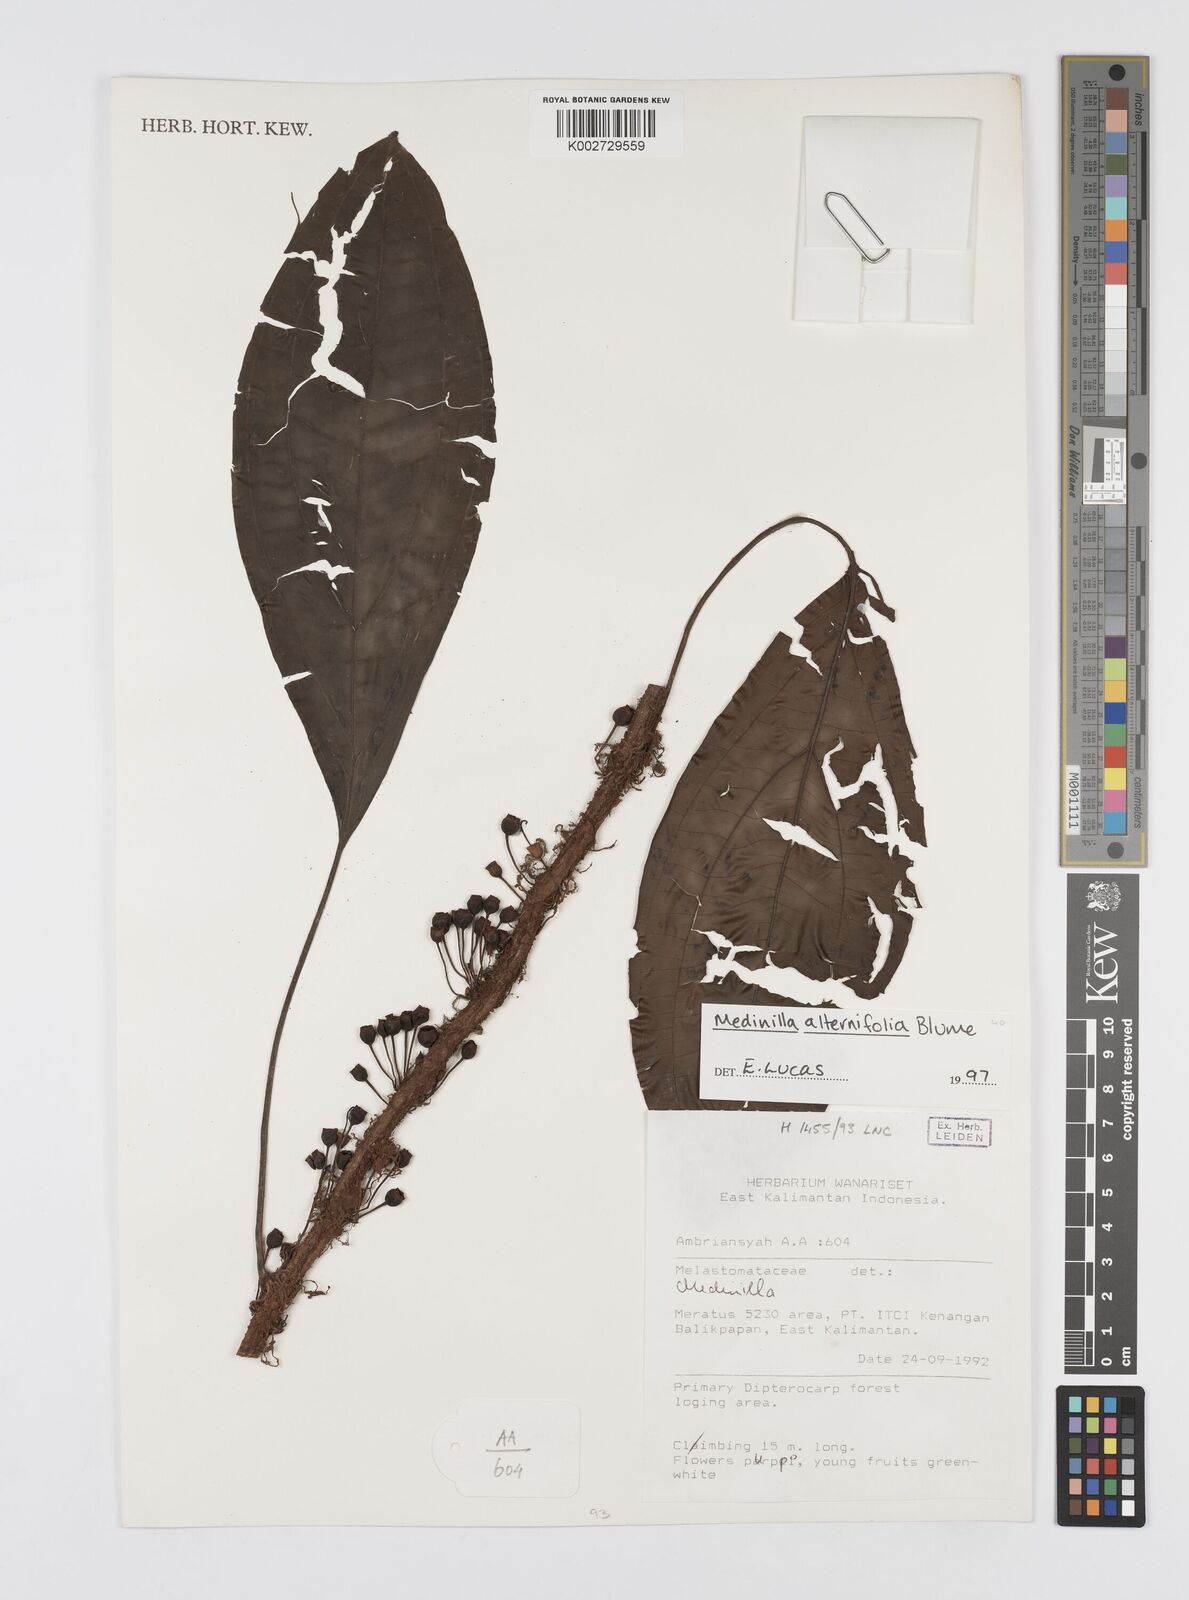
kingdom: Plantae
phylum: Tracheophyta
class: Magnoliopsida
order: Myrtales
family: Melastomataceae
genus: Heteroblemma
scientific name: Heteroblemma alternifolium
